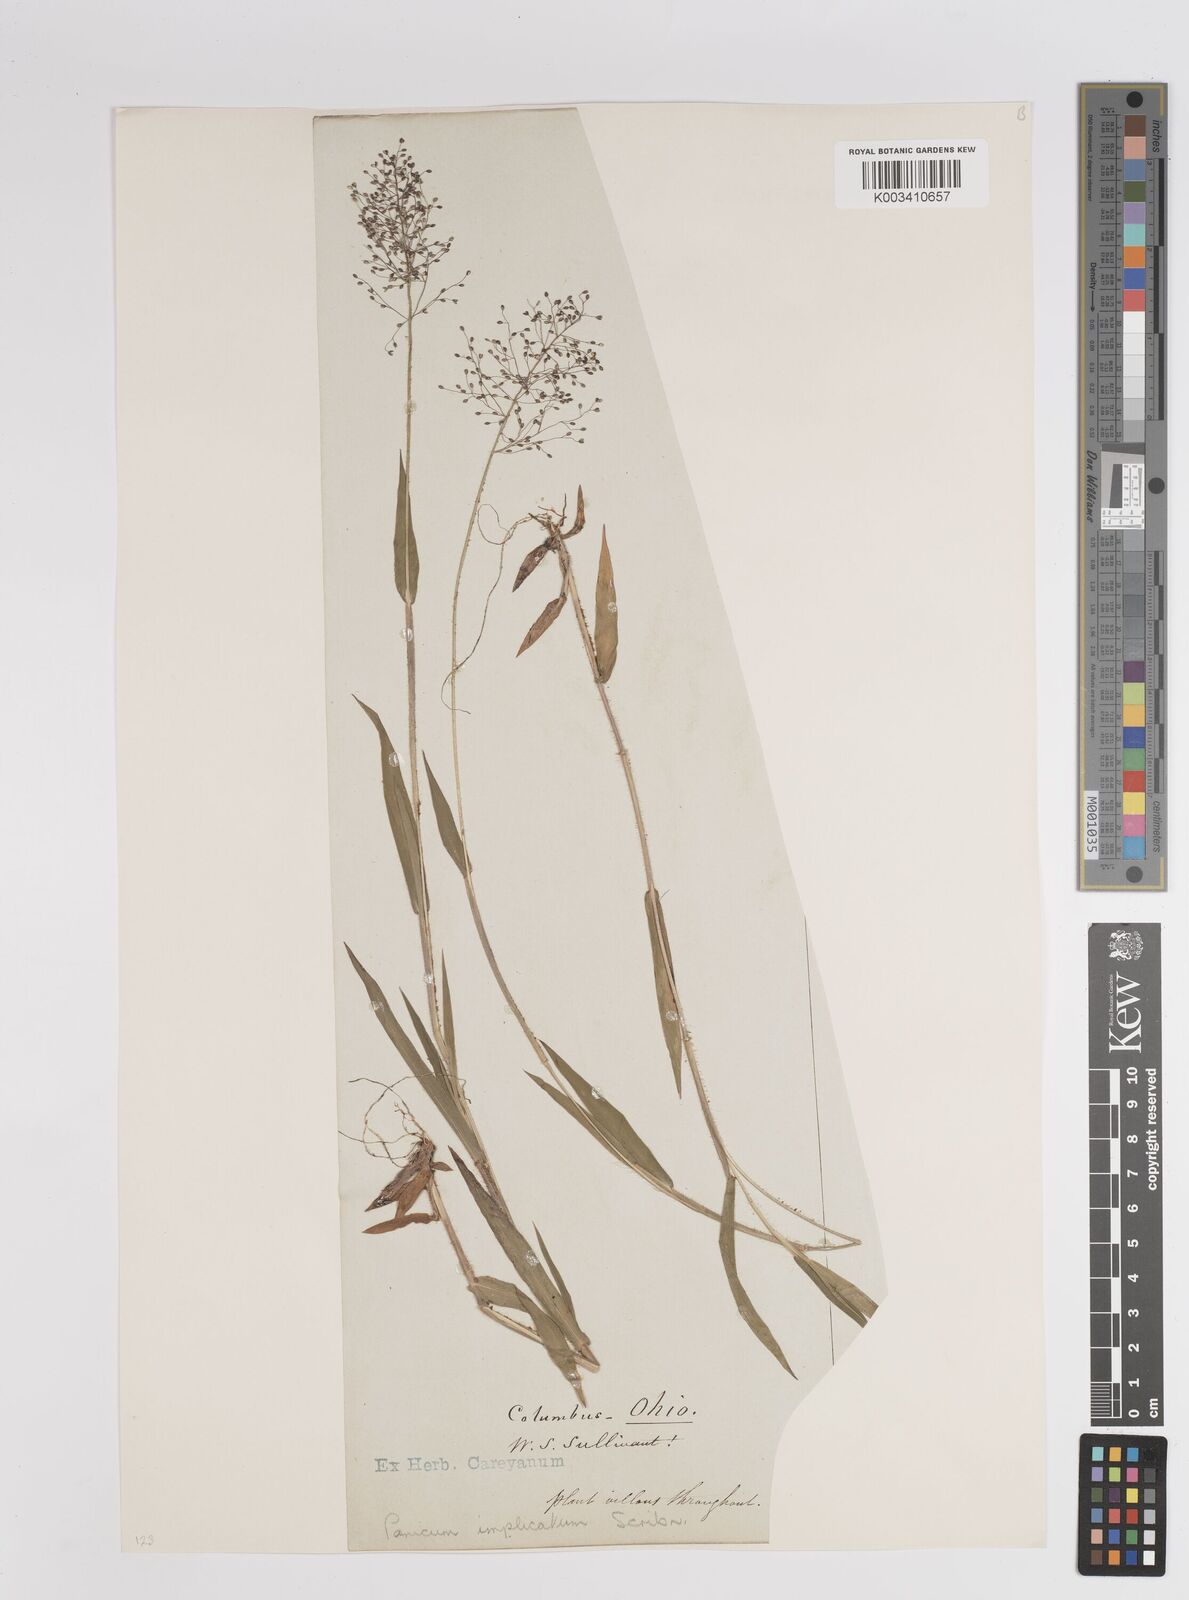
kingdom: Plantae
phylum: Tracheophyta
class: Liliopsida
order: Poales
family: Poaceae
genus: Dichanthelium
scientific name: Dichanthelium implicatum
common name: Slender-stemmed panicgrass
